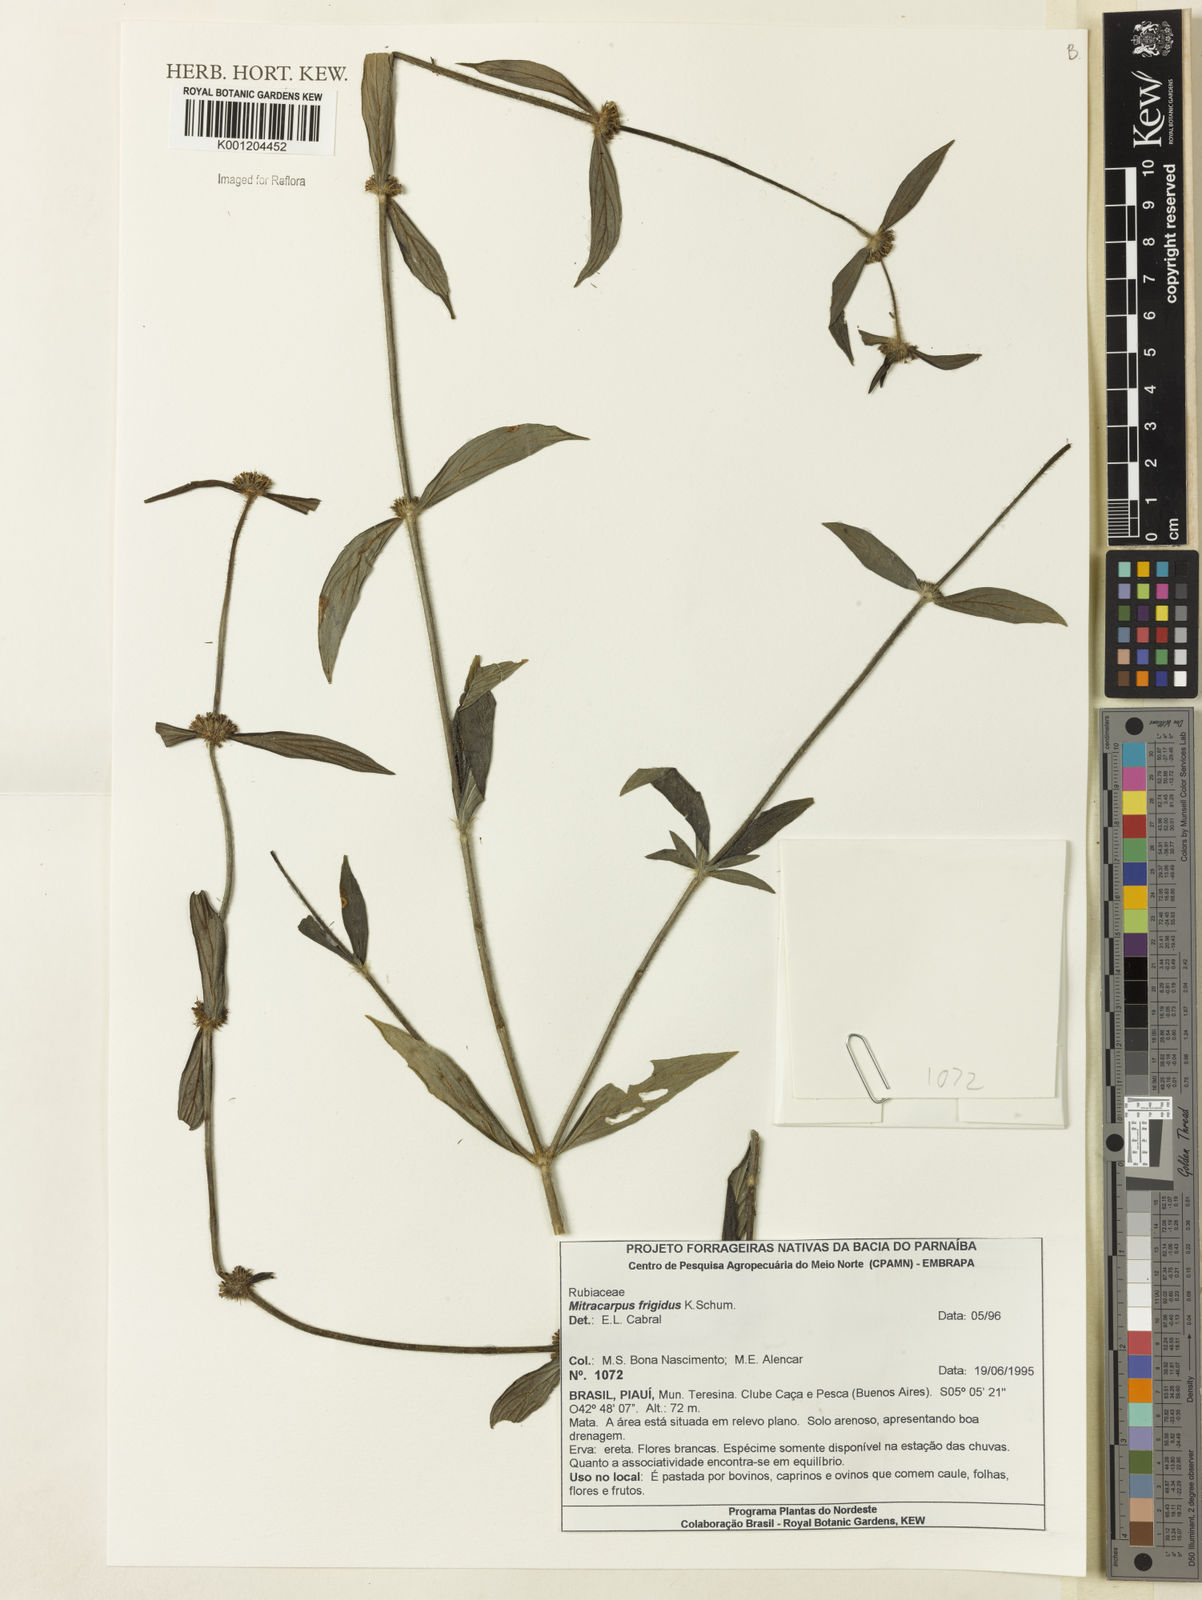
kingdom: Plantae
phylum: Tracheophyta
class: Magnoliopsida
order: Gentianales
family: Rubiaceae
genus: Mitracarpus
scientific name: Mitracarpus frigidus
